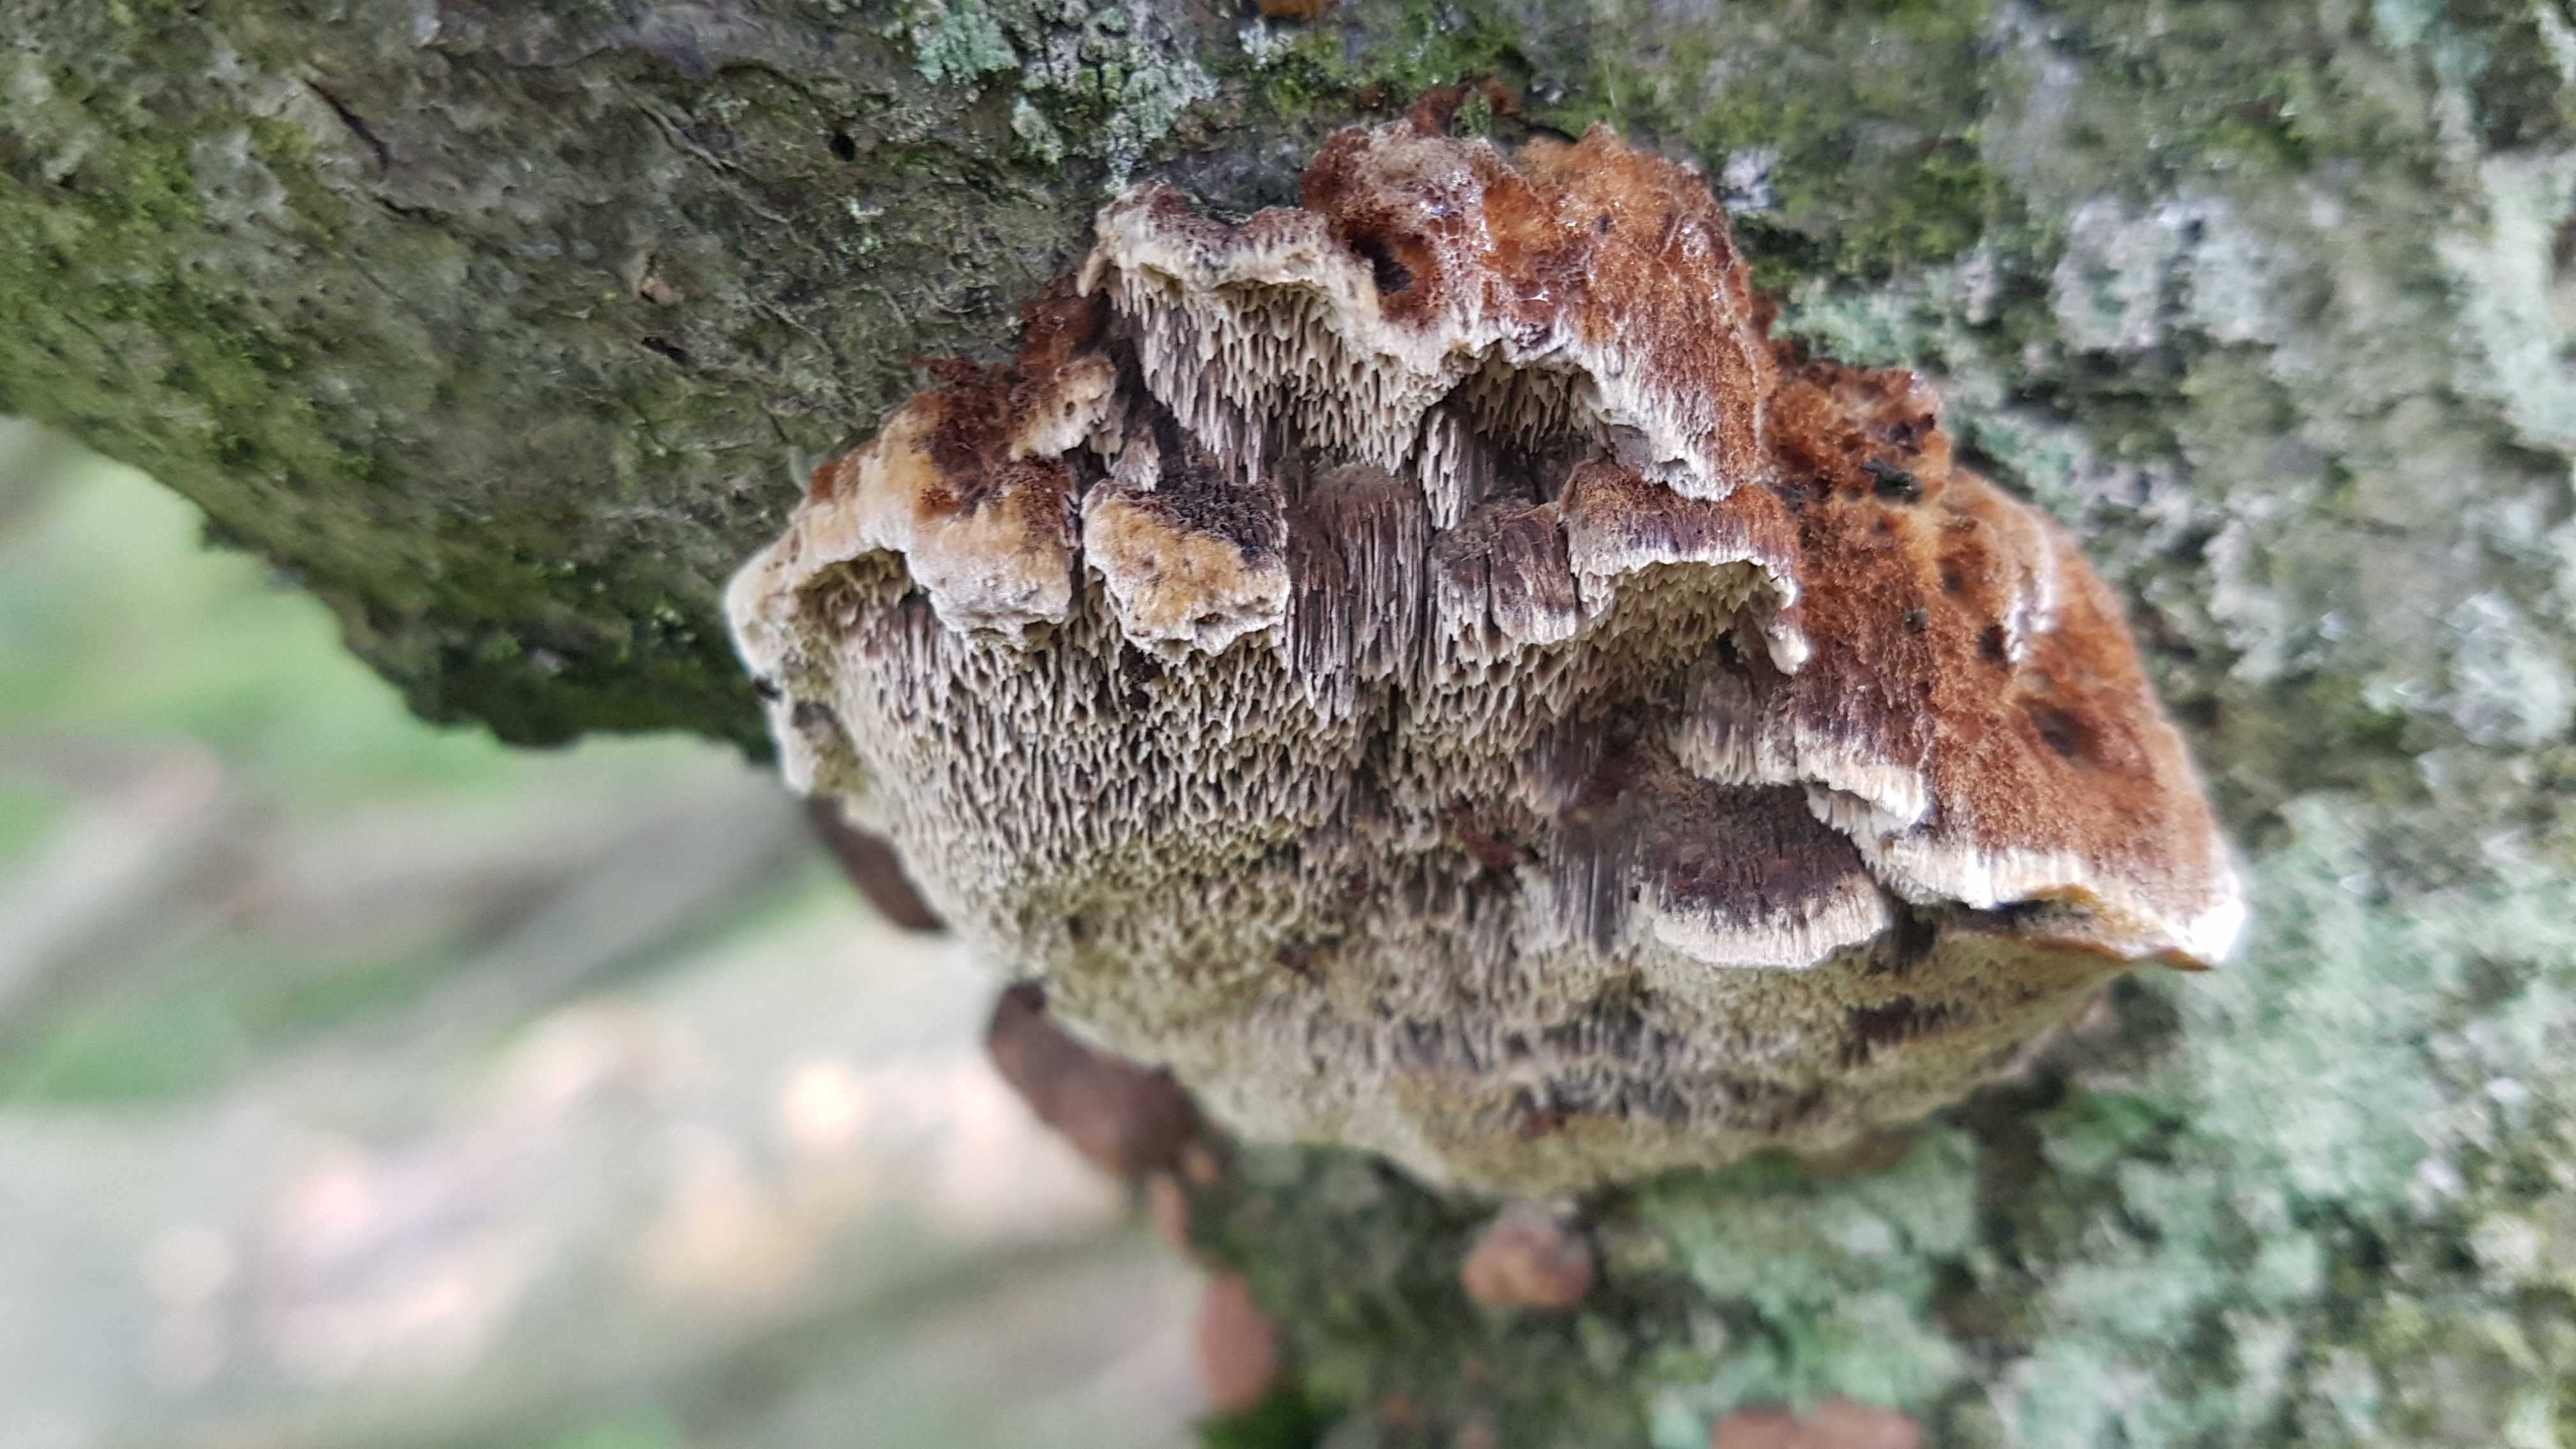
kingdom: Fungi
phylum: Basidiomycota
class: Agaricomycetes
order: Hymenochaetales
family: Hymenochaetaceae
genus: Mensularia
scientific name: Mensularia nodulosa
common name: bøge-spejlporesvamp
